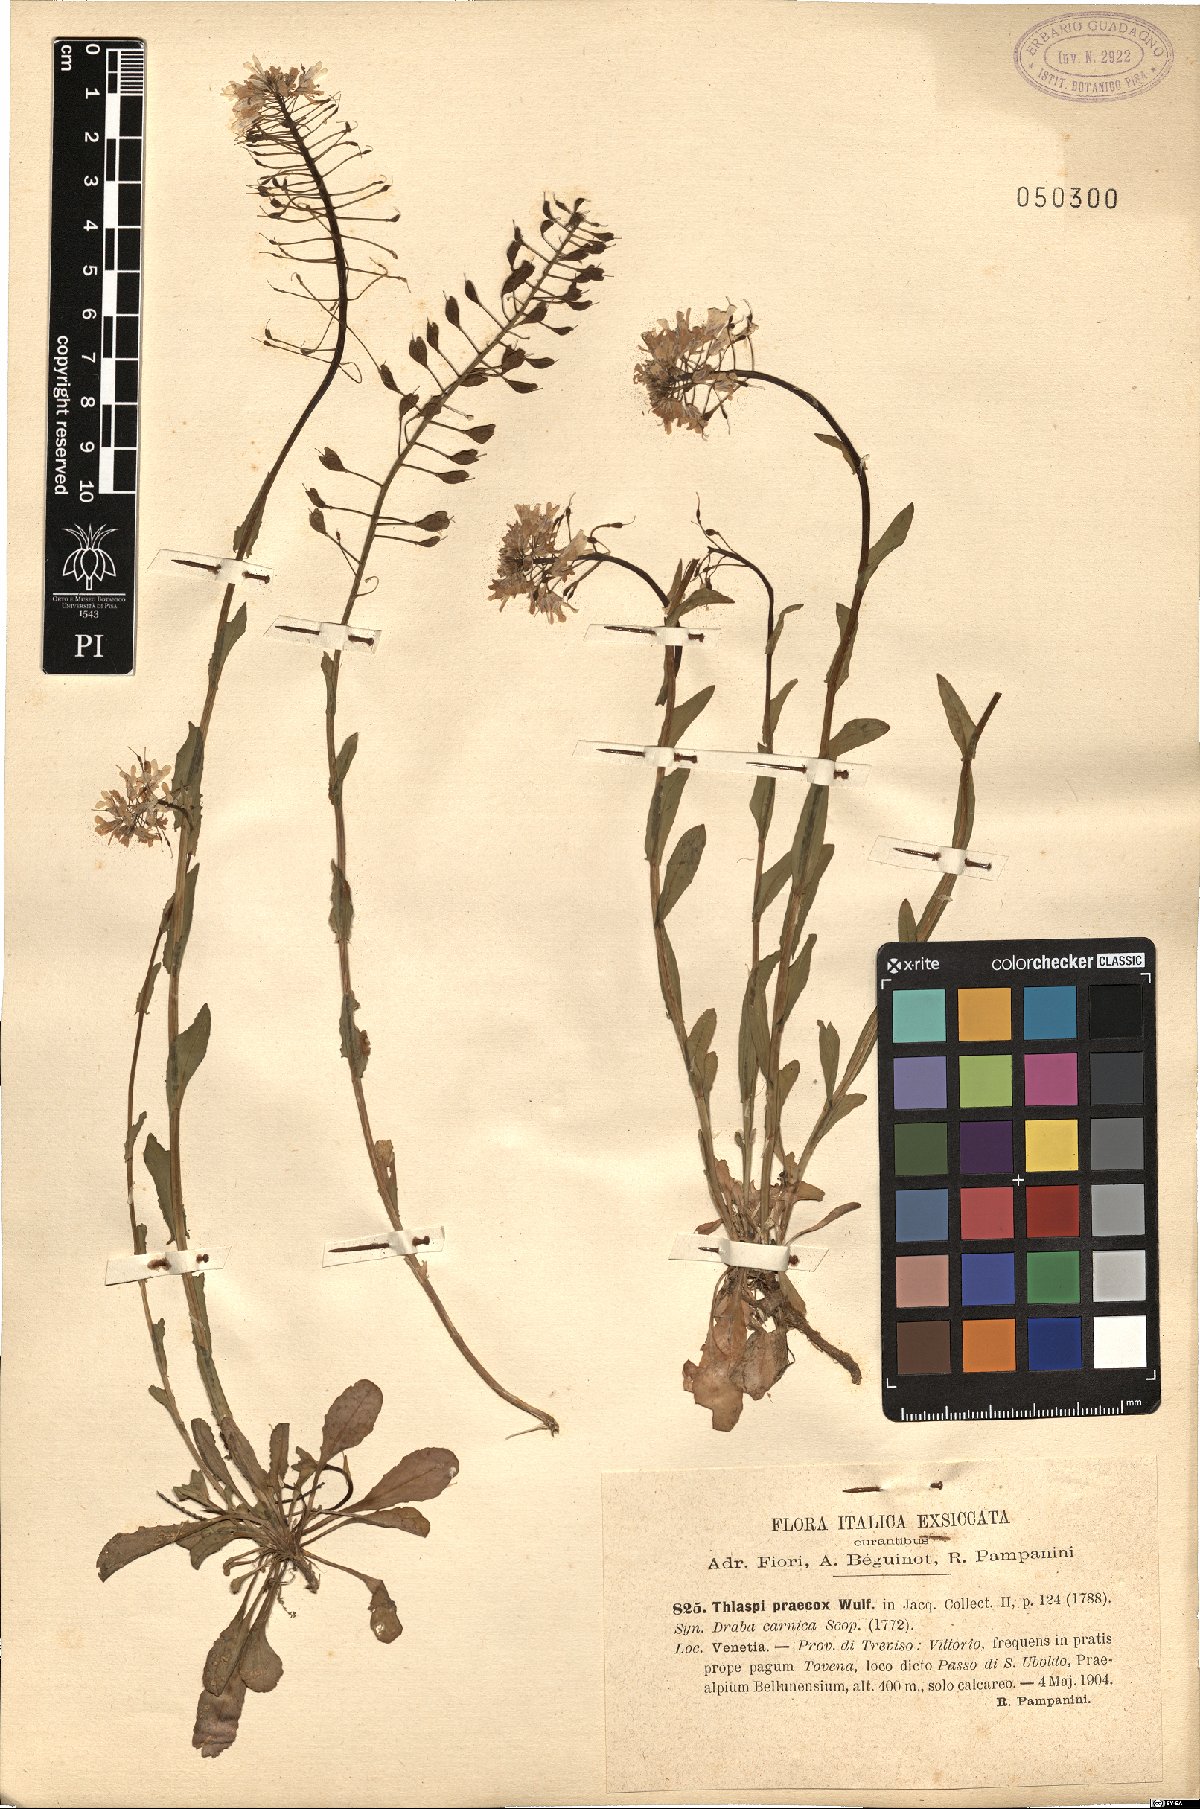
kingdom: Plantae
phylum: Tracheophyta
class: Magnoliopsida
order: Brassicales
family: Brassicaceae
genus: Noccaea
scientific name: Noccaea praecox
